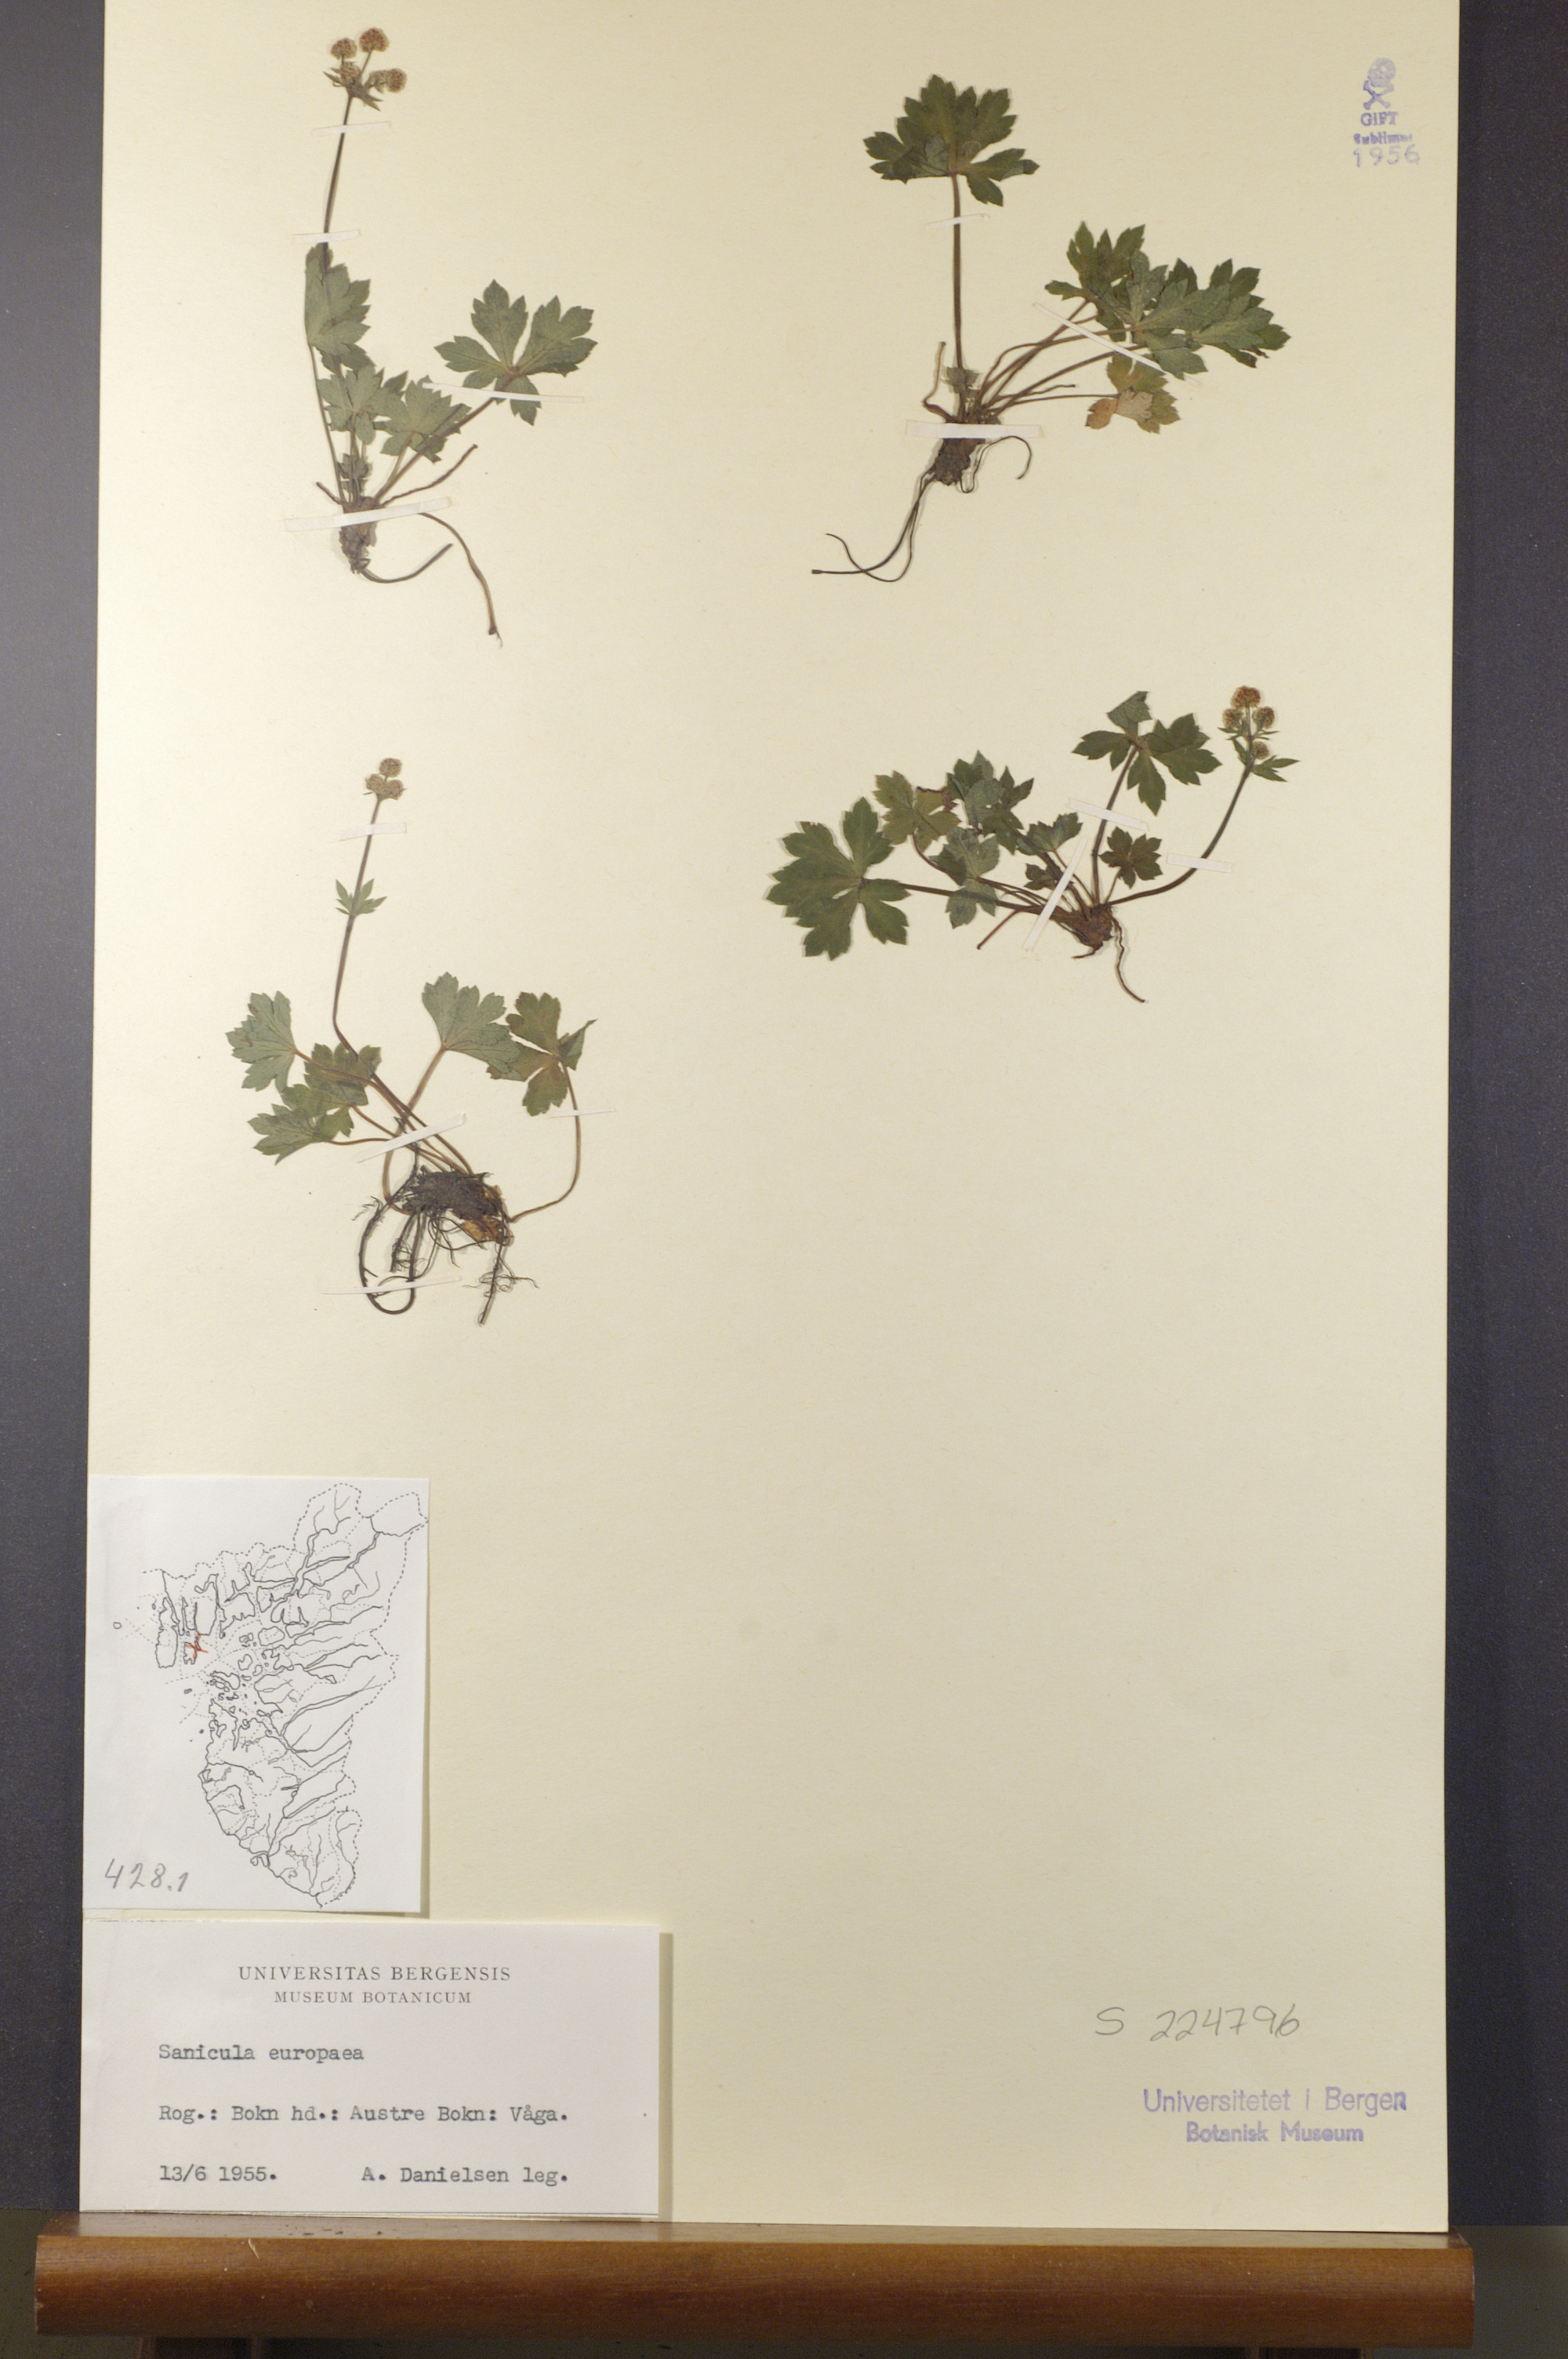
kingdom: Plantae
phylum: Tracheophyta
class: Magnoliopsida
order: Apiales
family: Apiaceae
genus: Sanicula
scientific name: Sanicula europaea
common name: Sanicle
